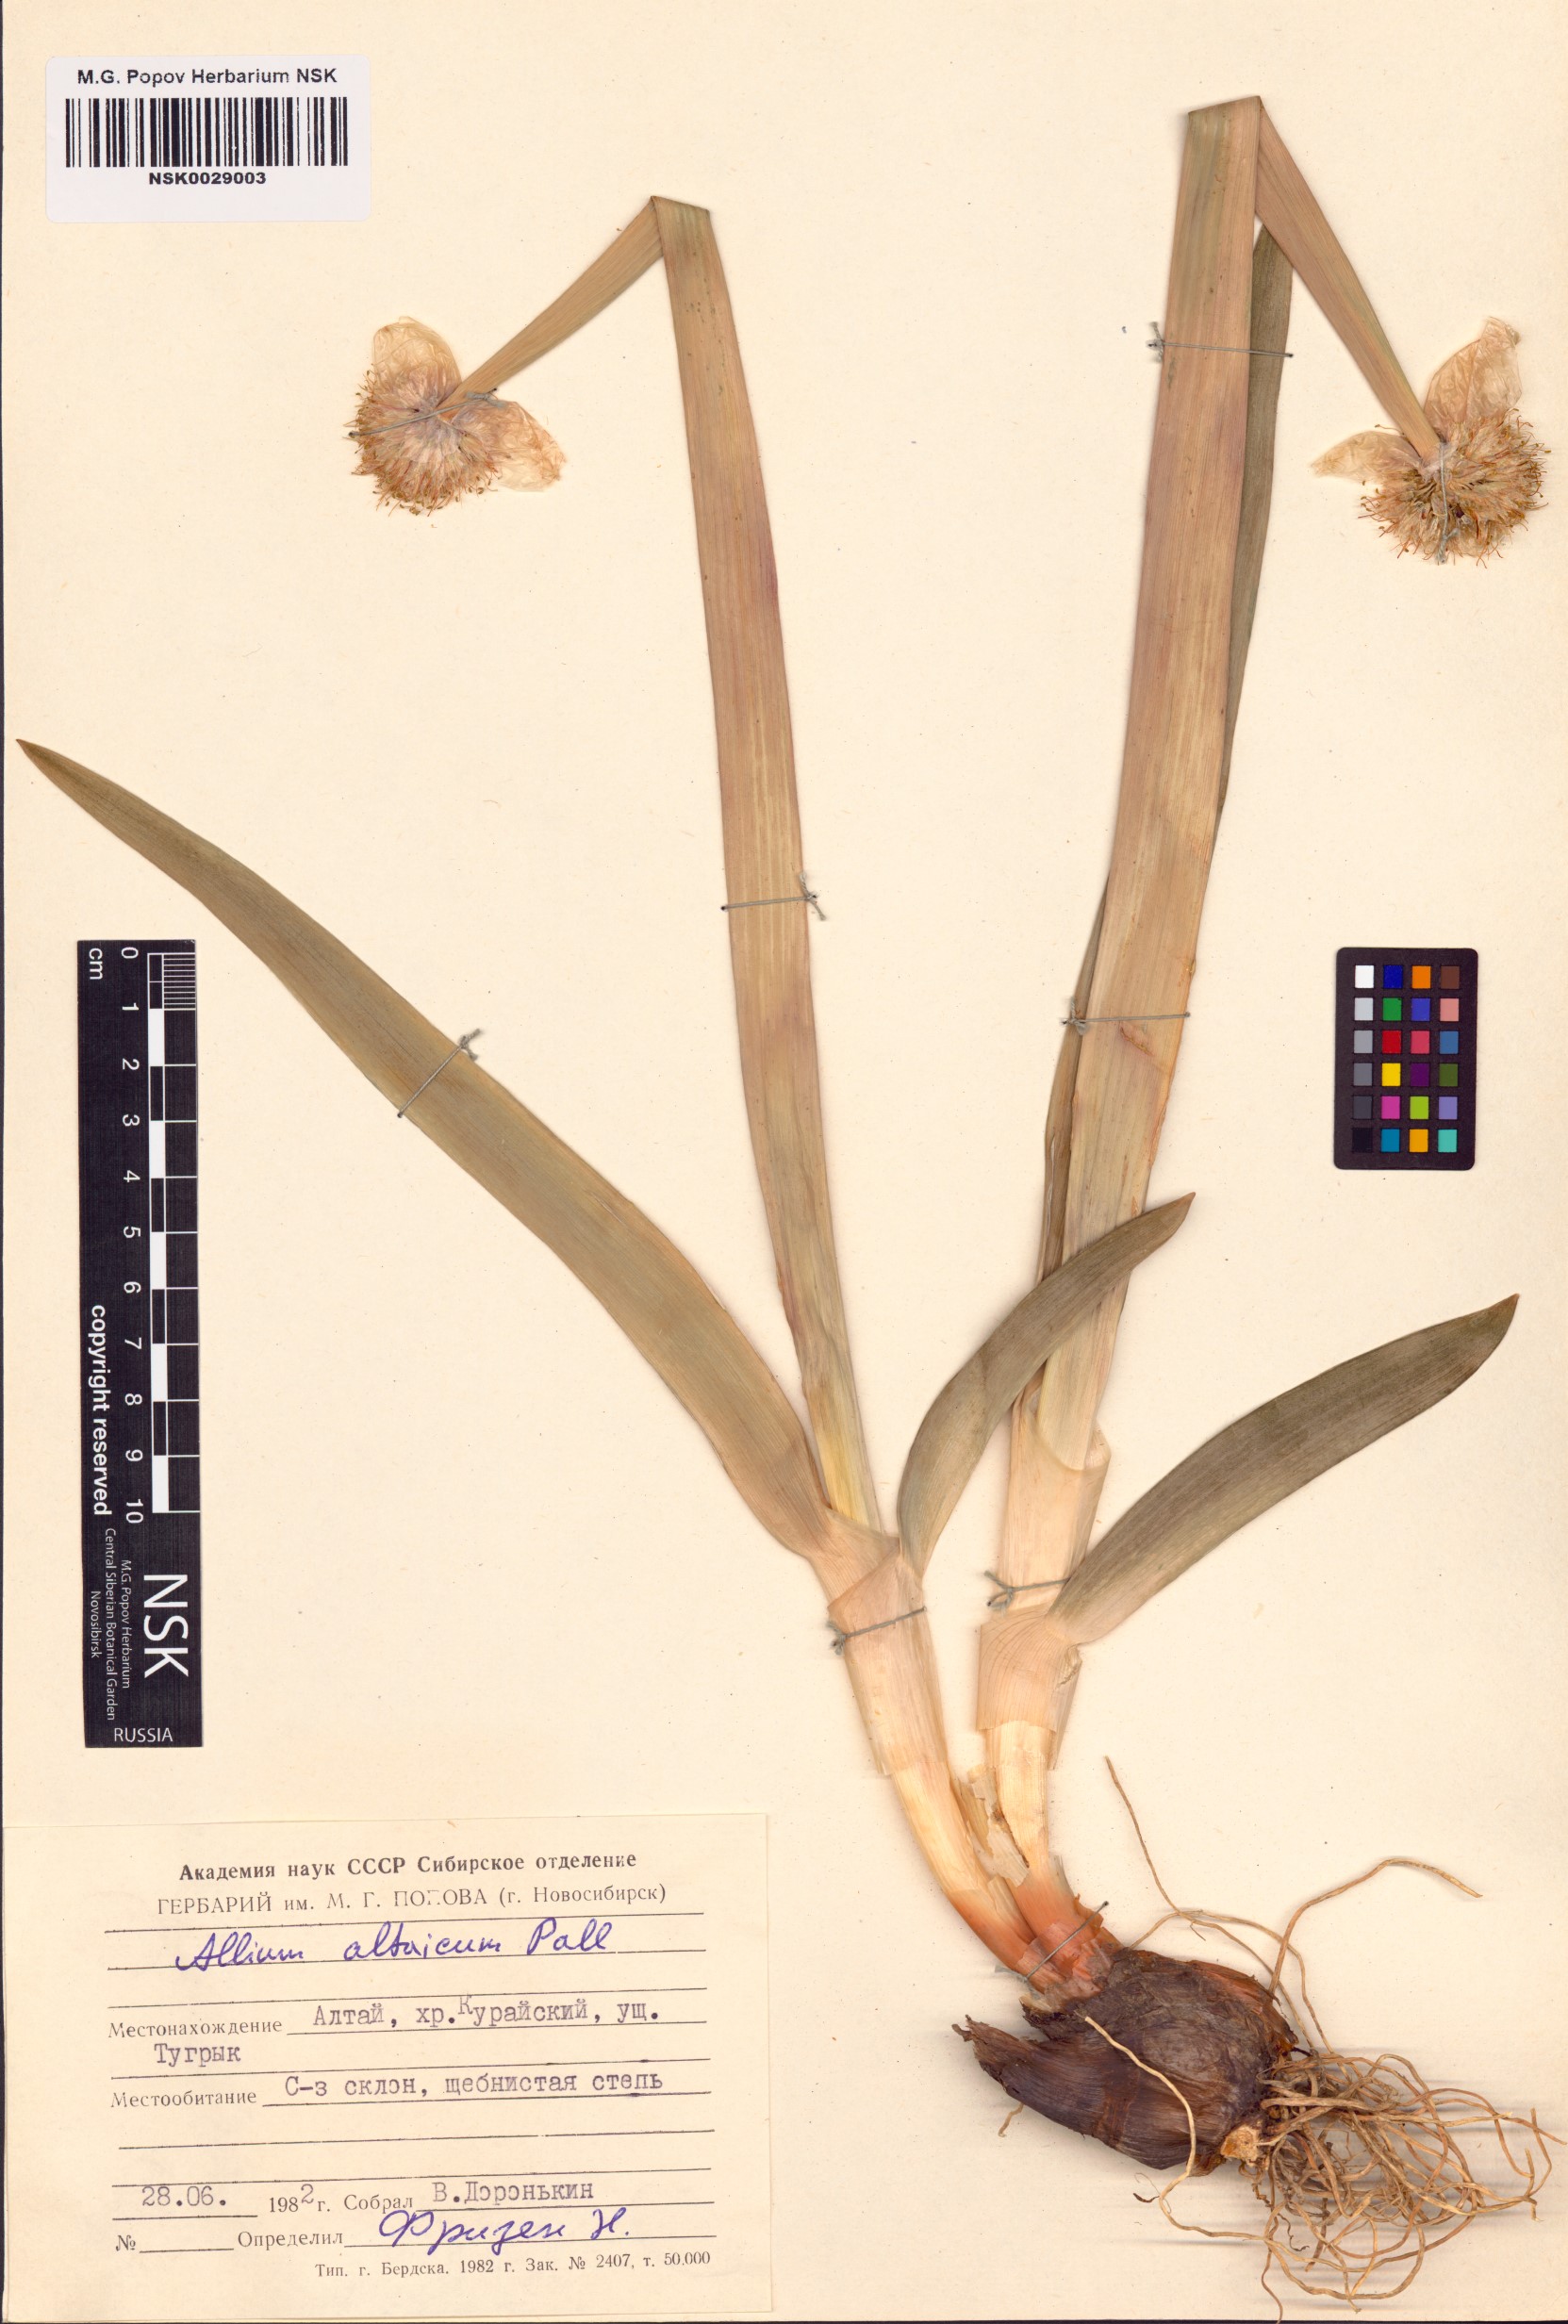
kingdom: Plantae
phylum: Tracheophyta
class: Liliopsida
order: Asparagales
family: Amaryllidaceae
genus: Allium
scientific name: Allium altaicum
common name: Altai onion
